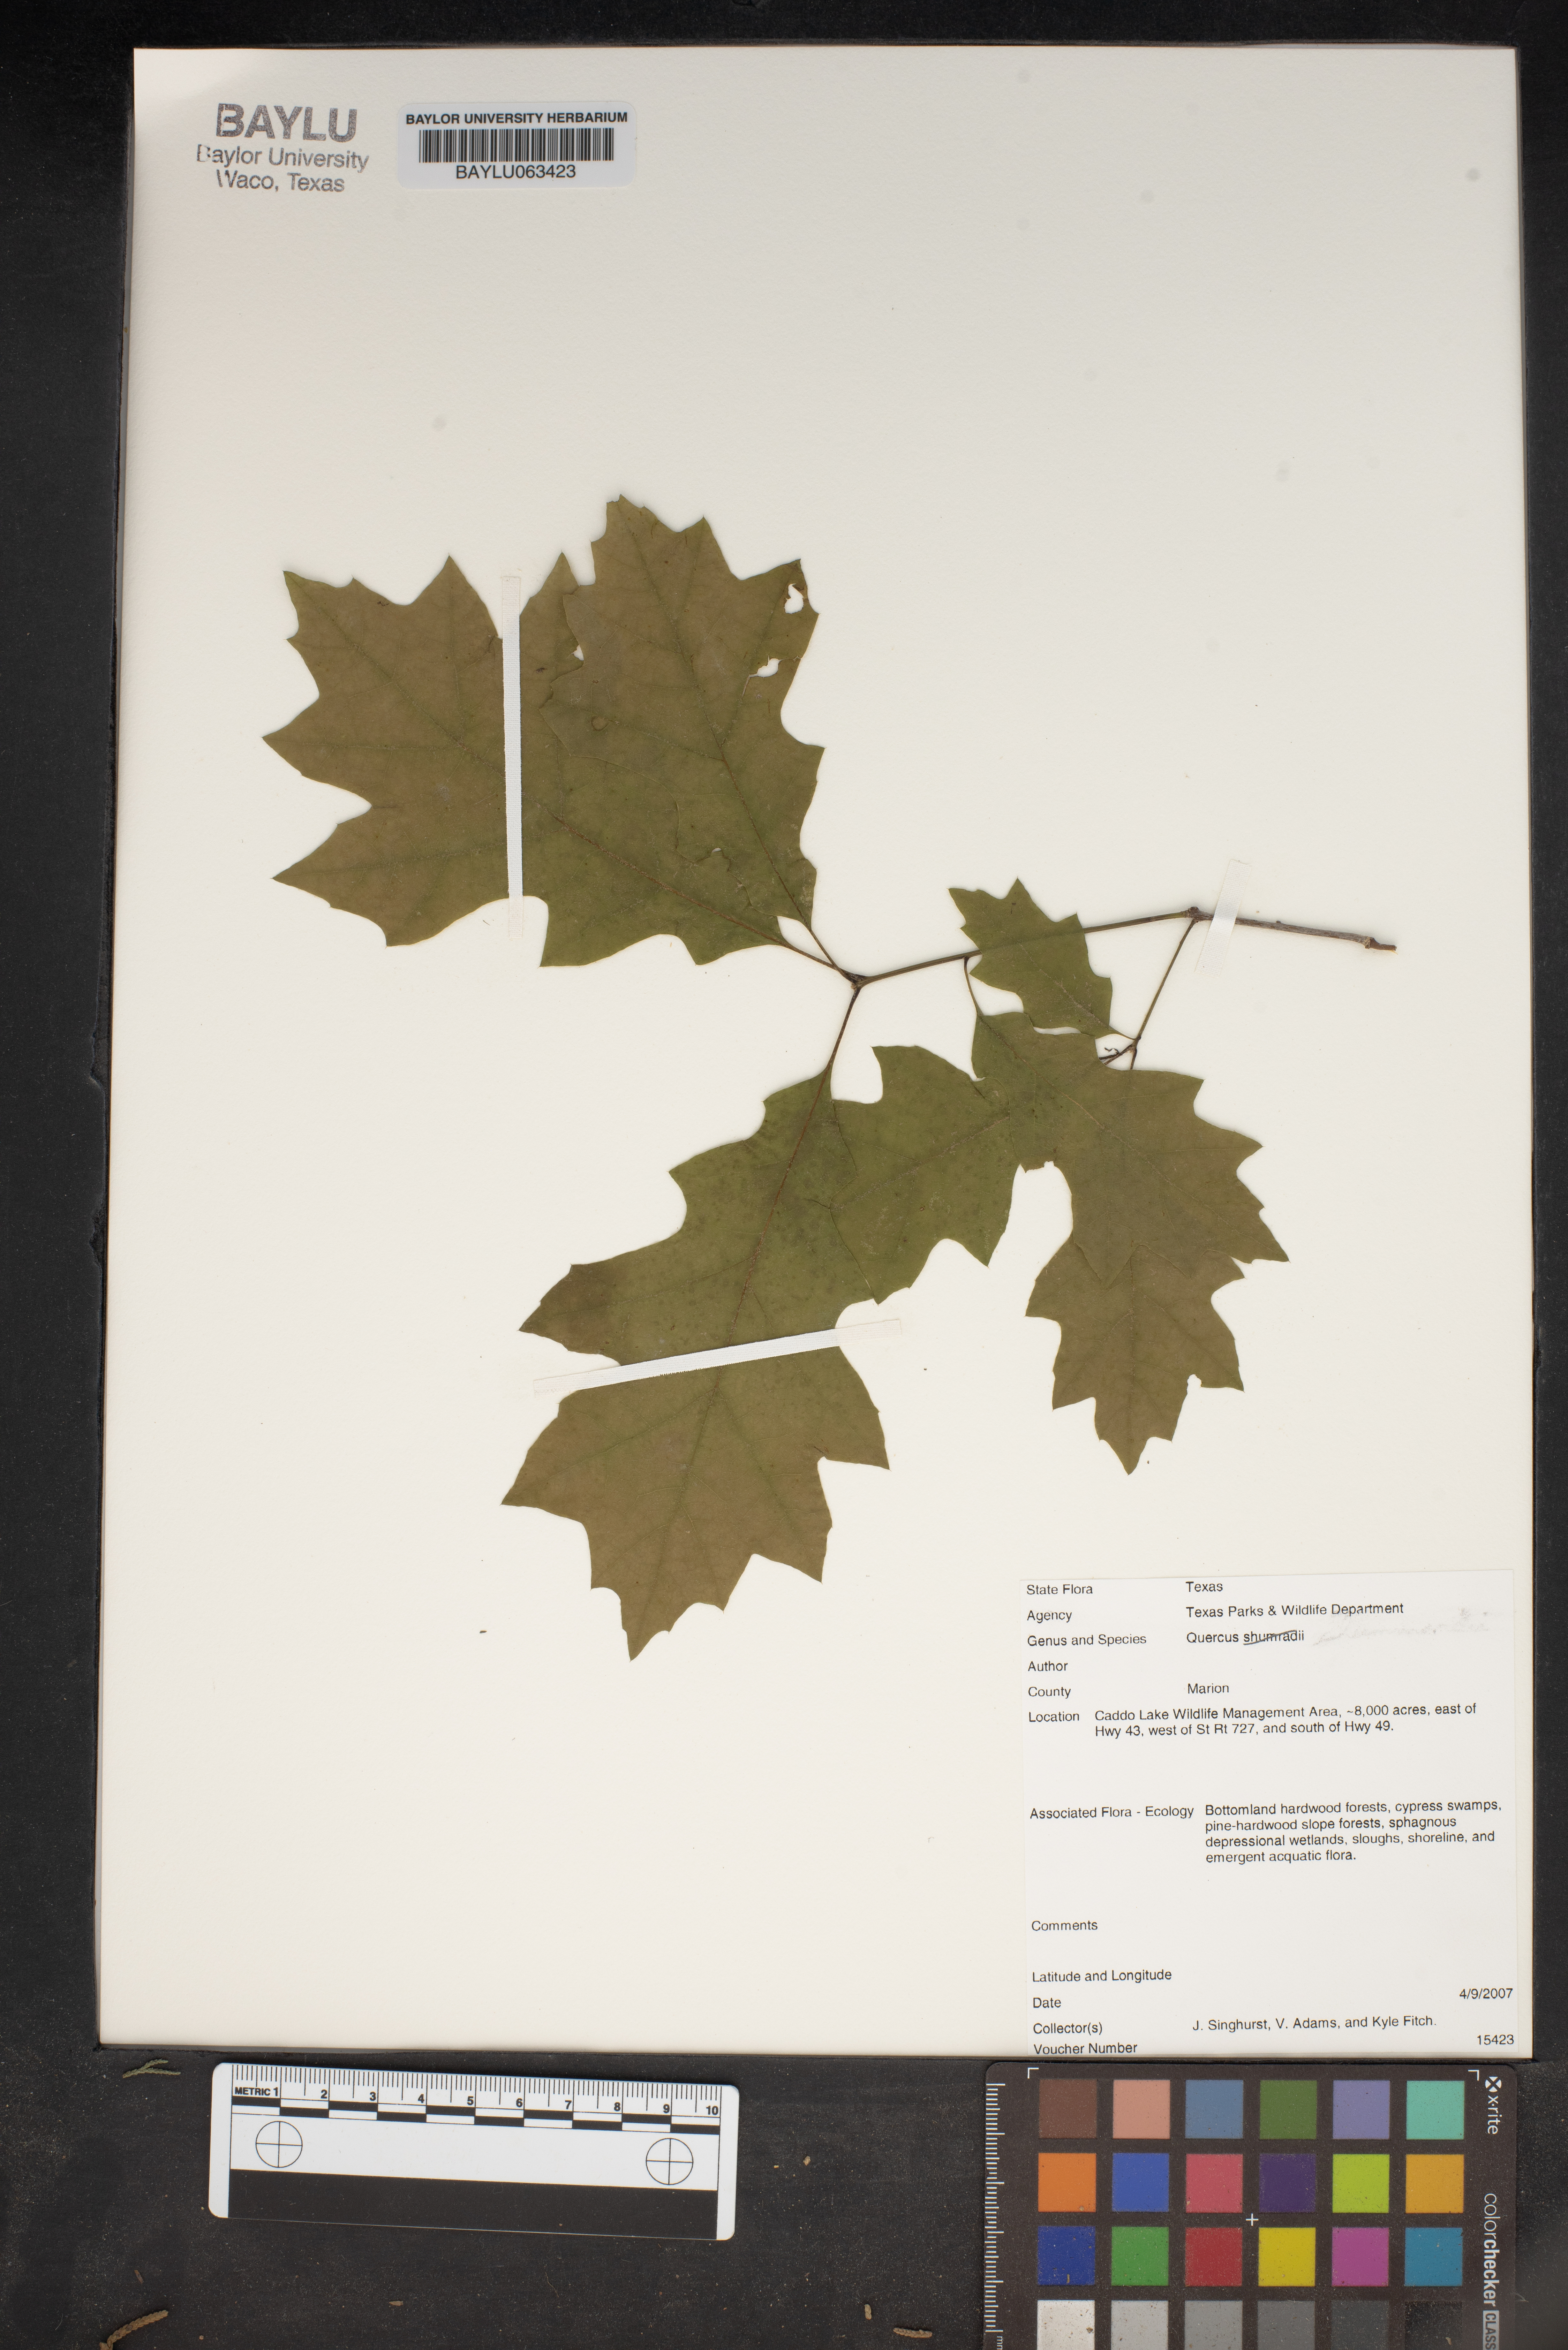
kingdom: Plantae
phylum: Tracheophyta
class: Magnoliopsida
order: Fagales
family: Fagaceae
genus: Quercus
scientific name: Quercus
